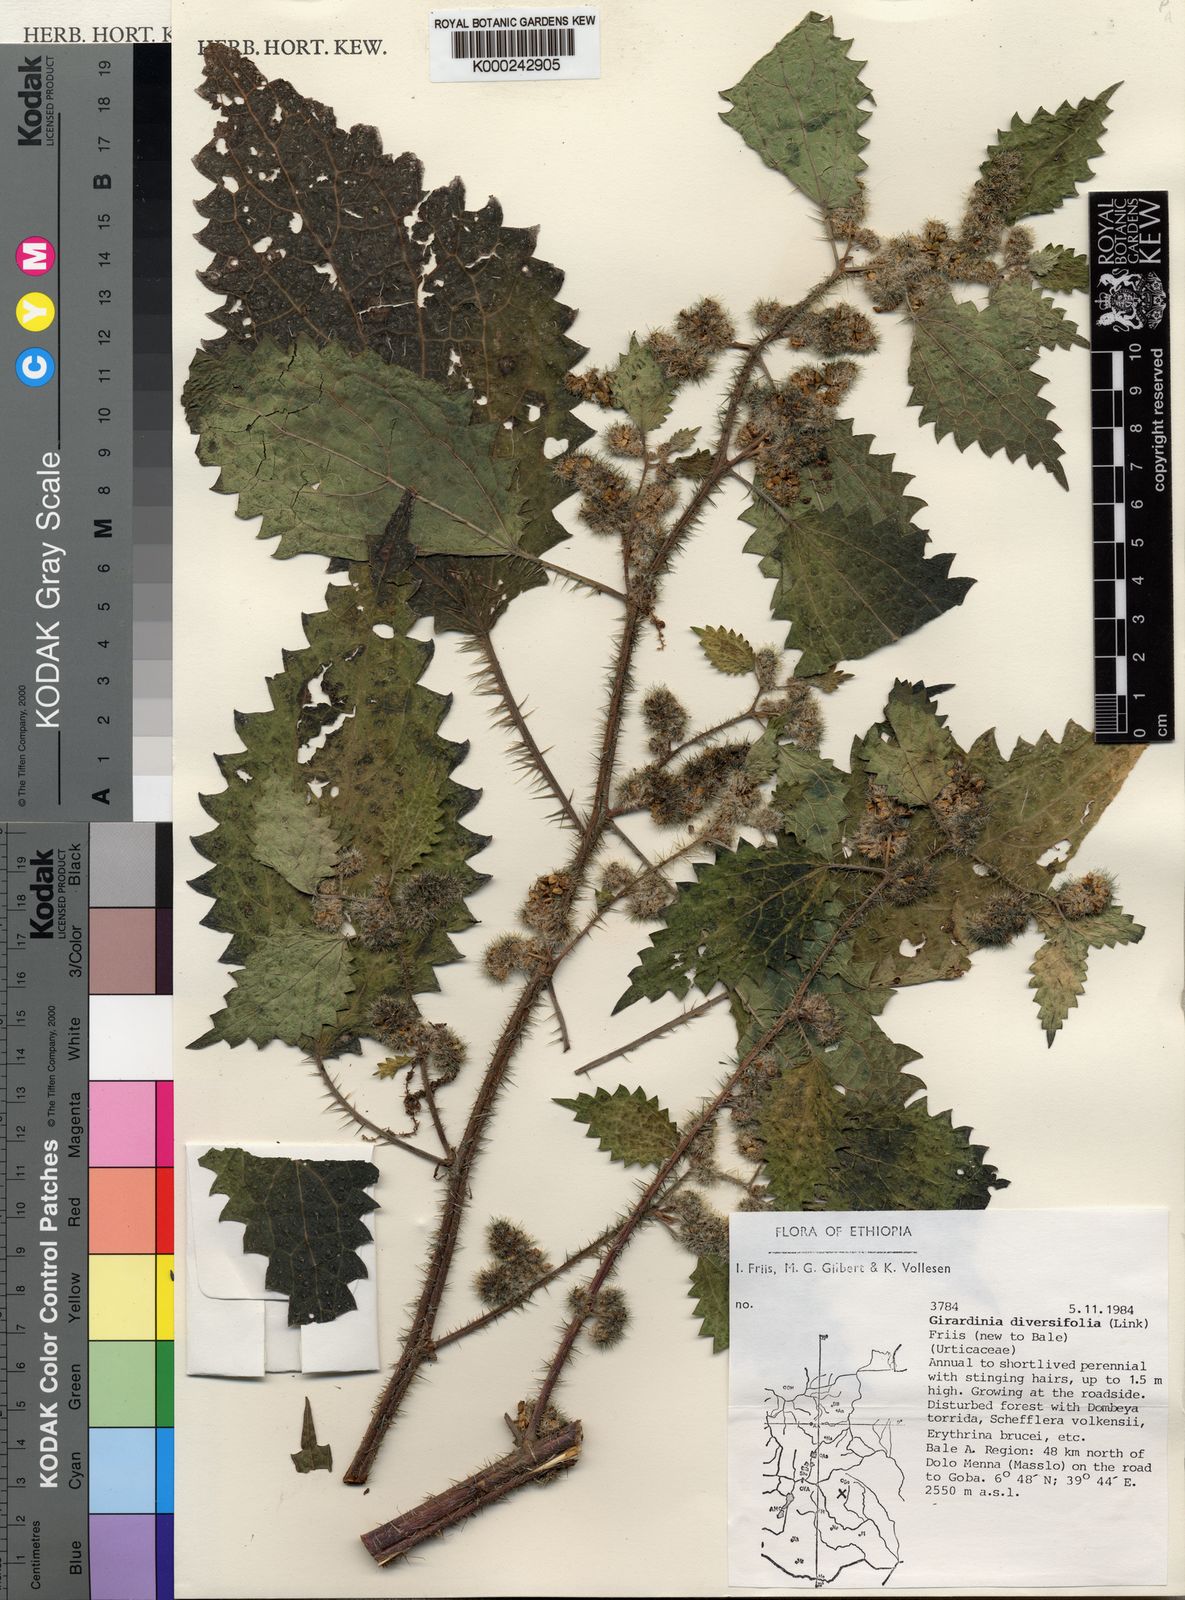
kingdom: Plantae
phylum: Tracheophyta
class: Magnoliopsida
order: Rosales
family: Urticaceae
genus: Girardinia
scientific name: Girardinia diversifolia
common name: Himalayan-nettle
